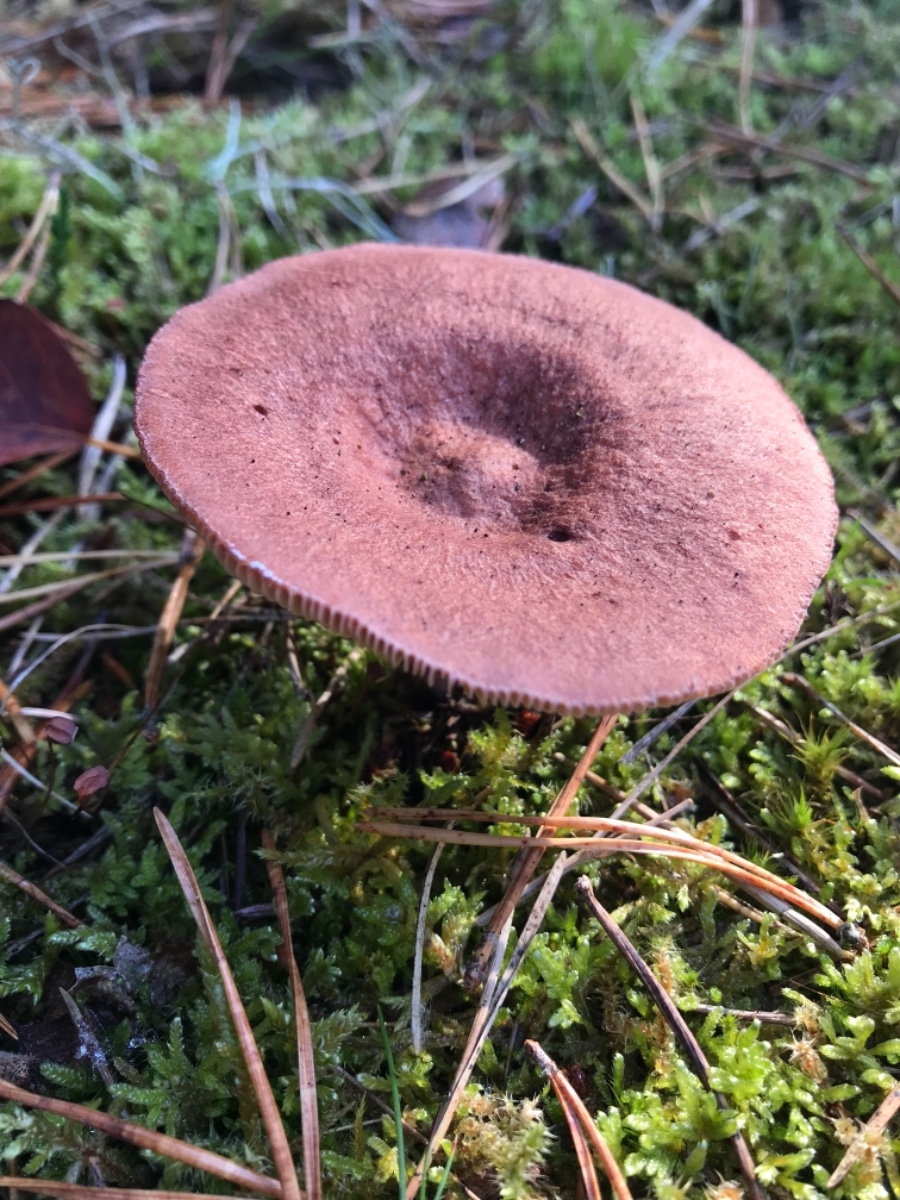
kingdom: Fungi
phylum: Basidiomycota
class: Agaricomycetes
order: Russulales
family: Russulaceae
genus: Lactarius
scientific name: Lactarius rufus
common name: rødbrun mælkehat
